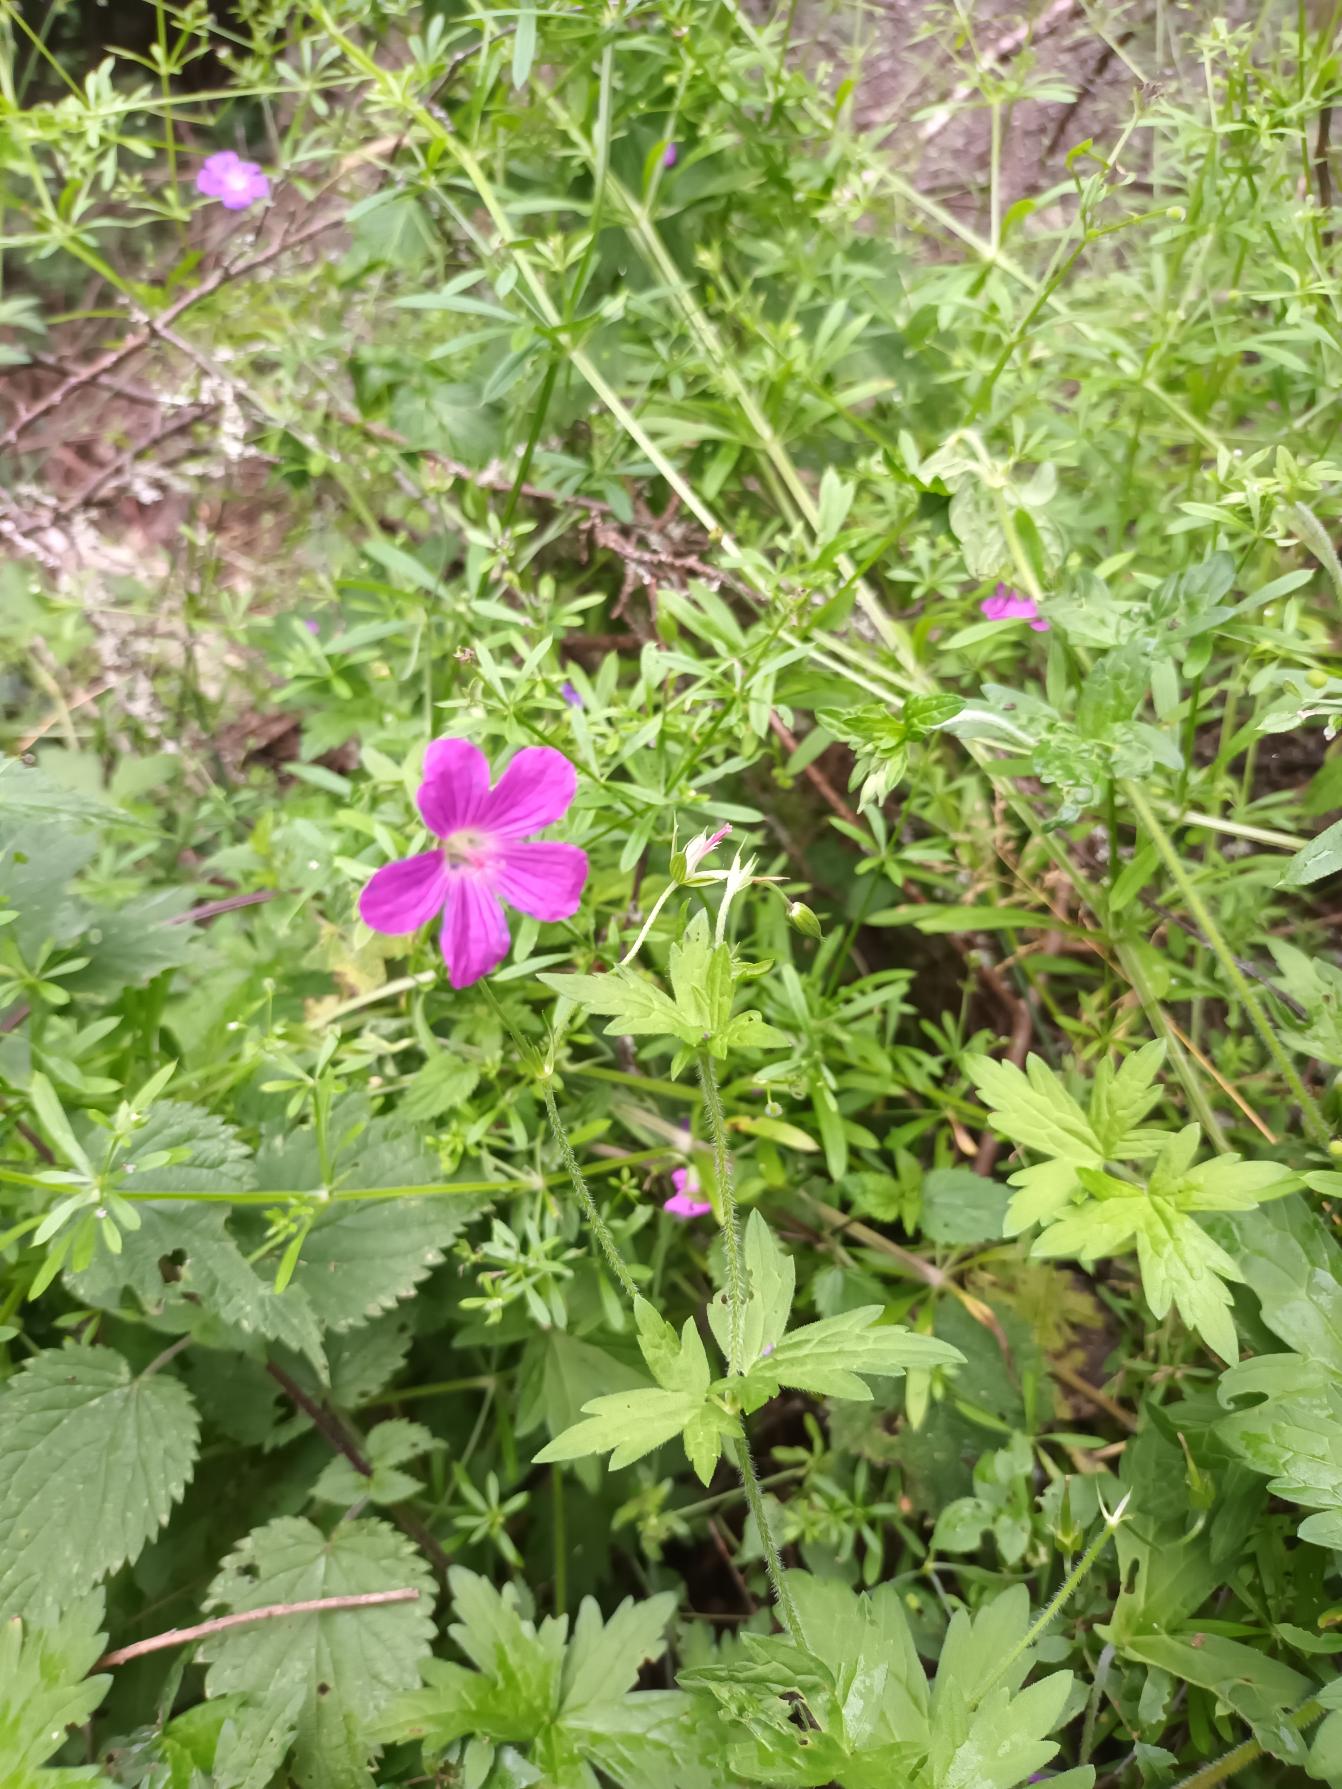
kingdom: Plantae
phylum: Tracheophyta
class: Magnoliopsida
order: Geraniales
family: Geraniaceae
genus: Geranium
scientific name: Geranium palustre
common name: Kær-storkenæb
